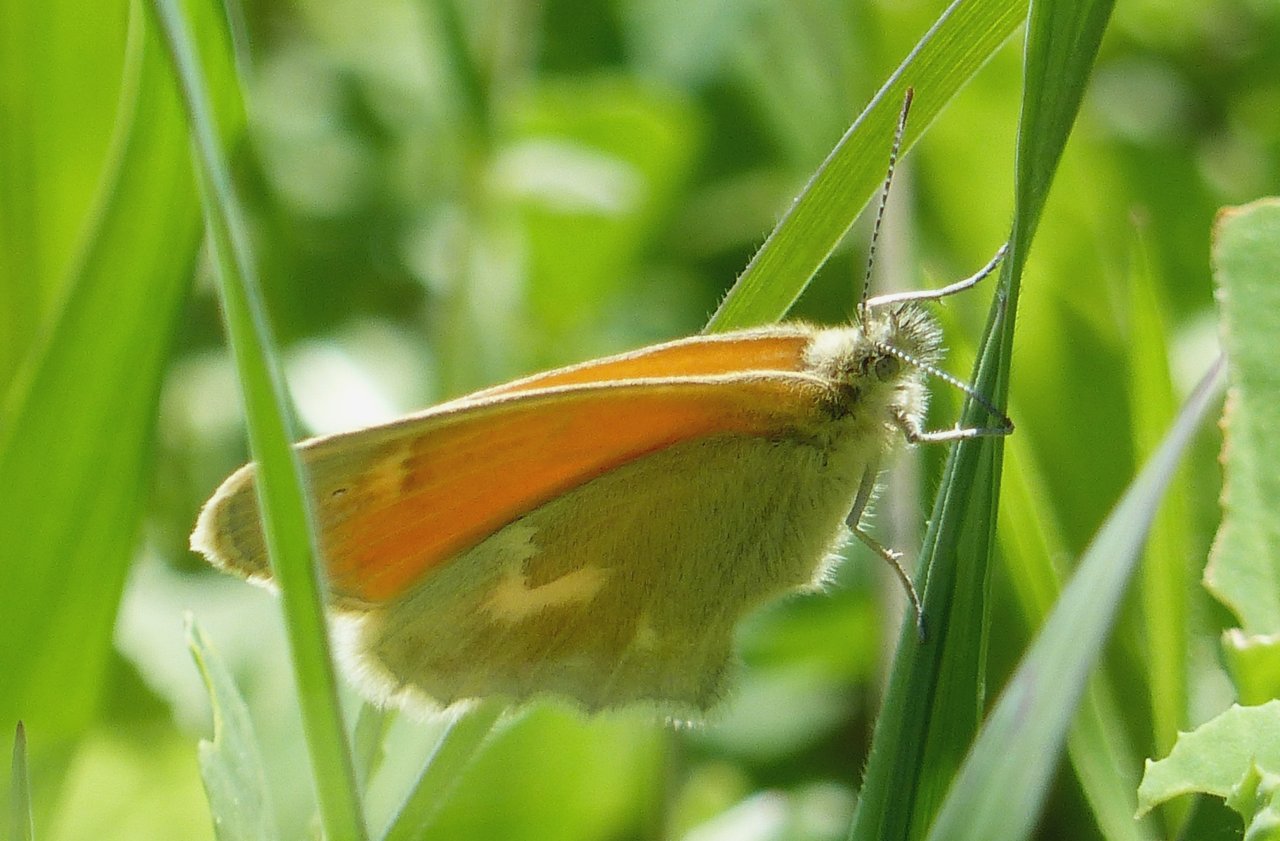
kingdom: Animalia
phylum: Arthropoda
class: Insecta
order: Lepidoptera
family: Nymphalidae
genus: Coenonympha
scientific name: Coenonympha tullia
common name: Large Heath
